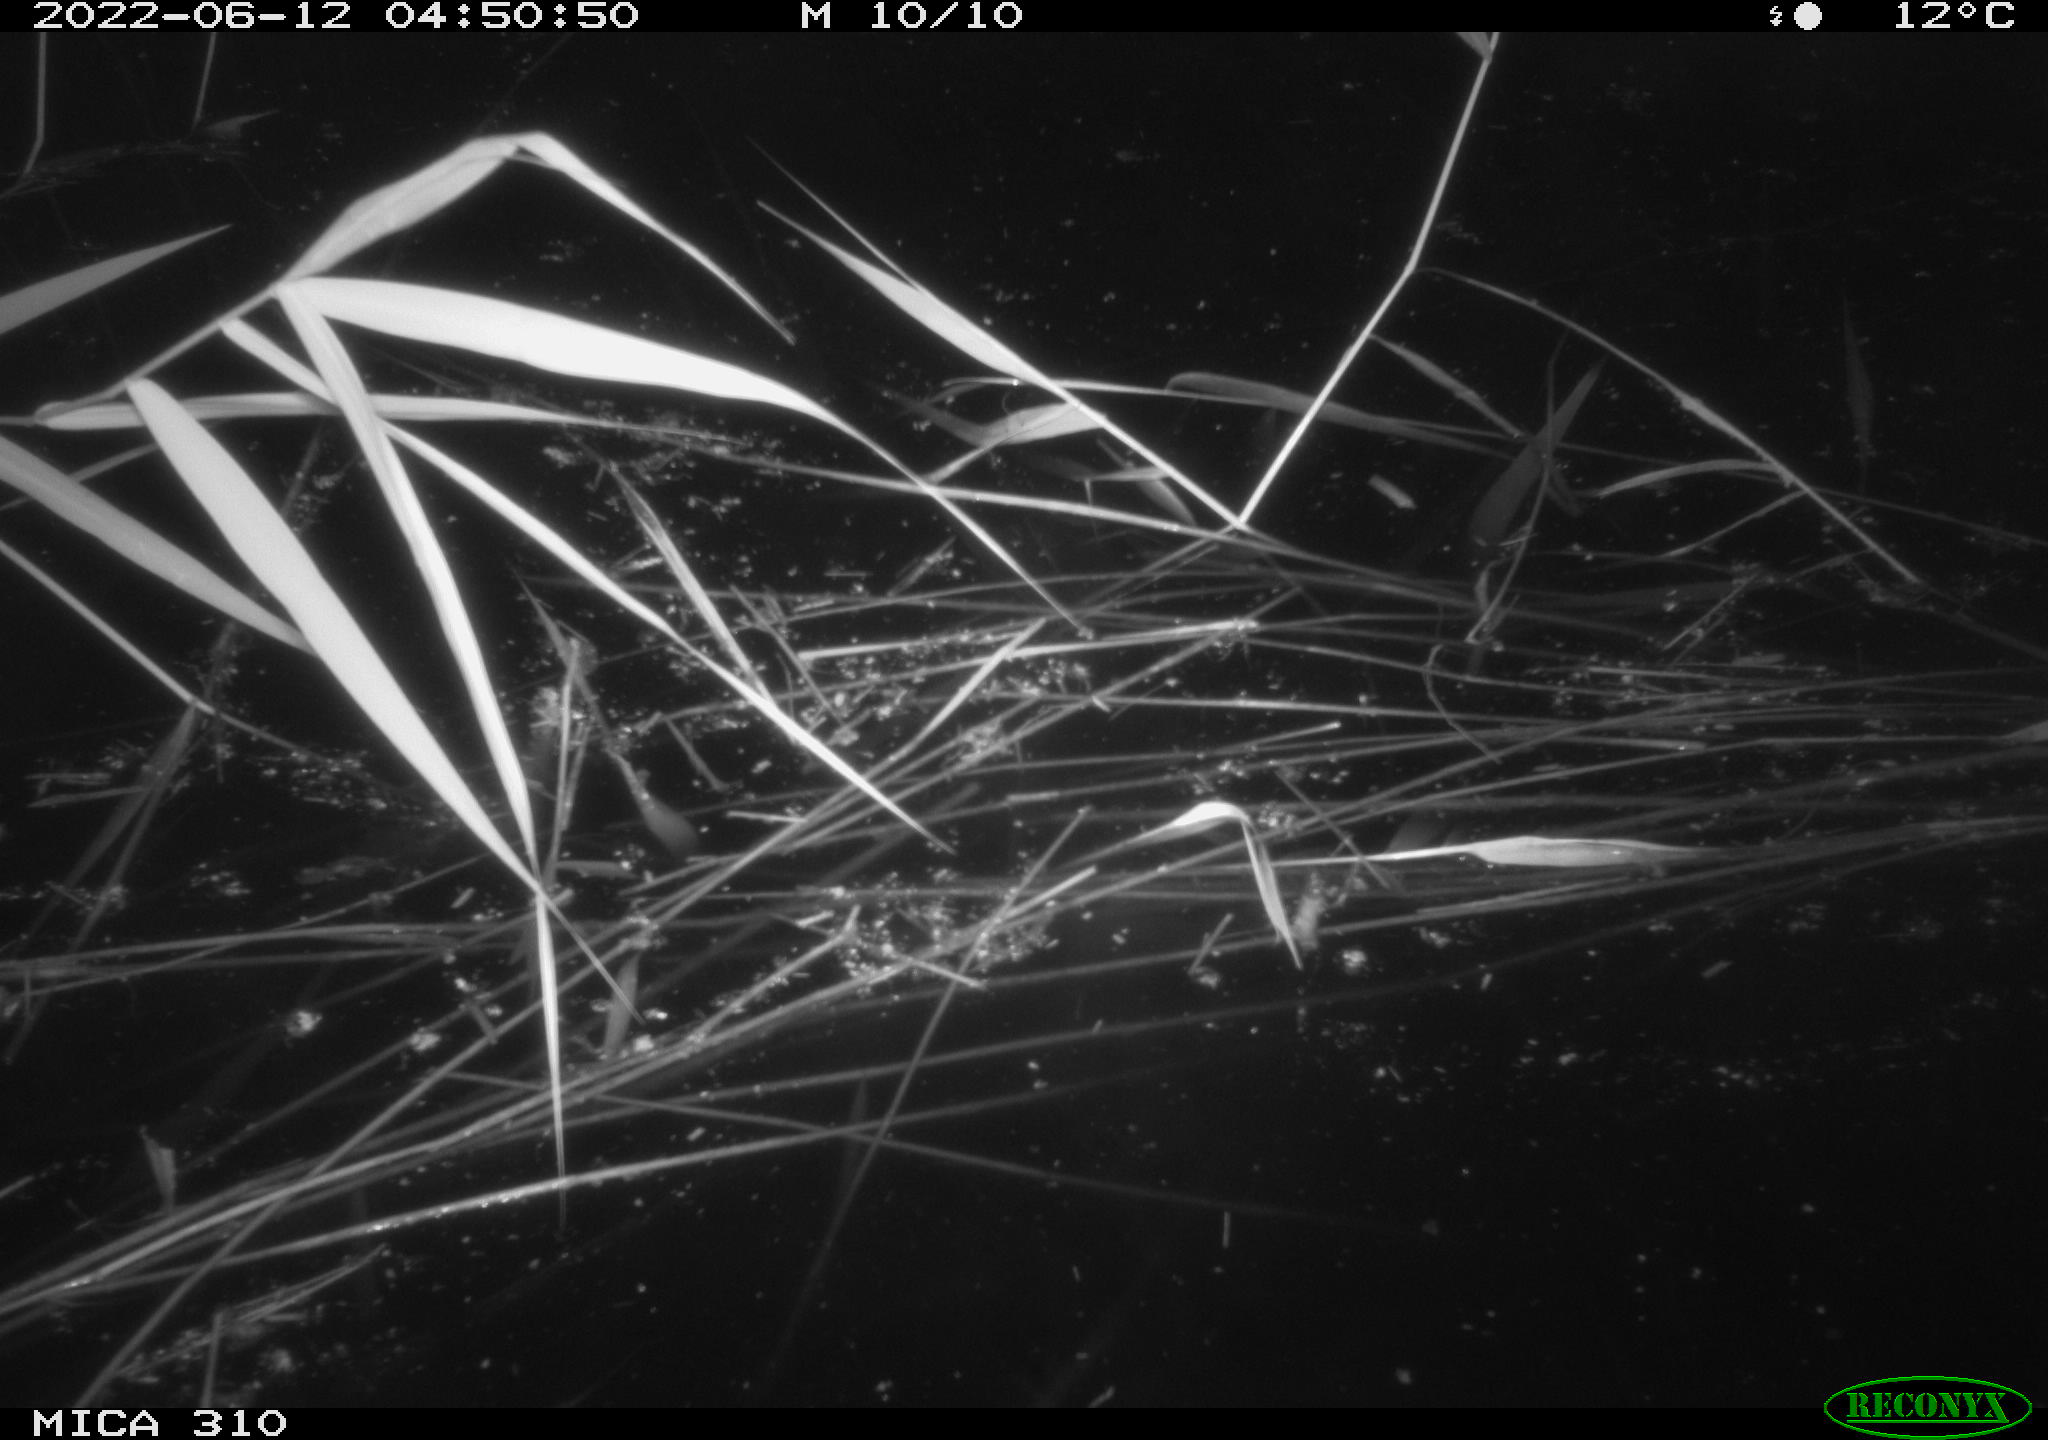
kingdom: Animalia
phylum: Chordata
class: Aves
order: Anseriformes
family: Anatidae
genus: Anas
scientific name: Anas platyrhynchos
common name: Mallard
